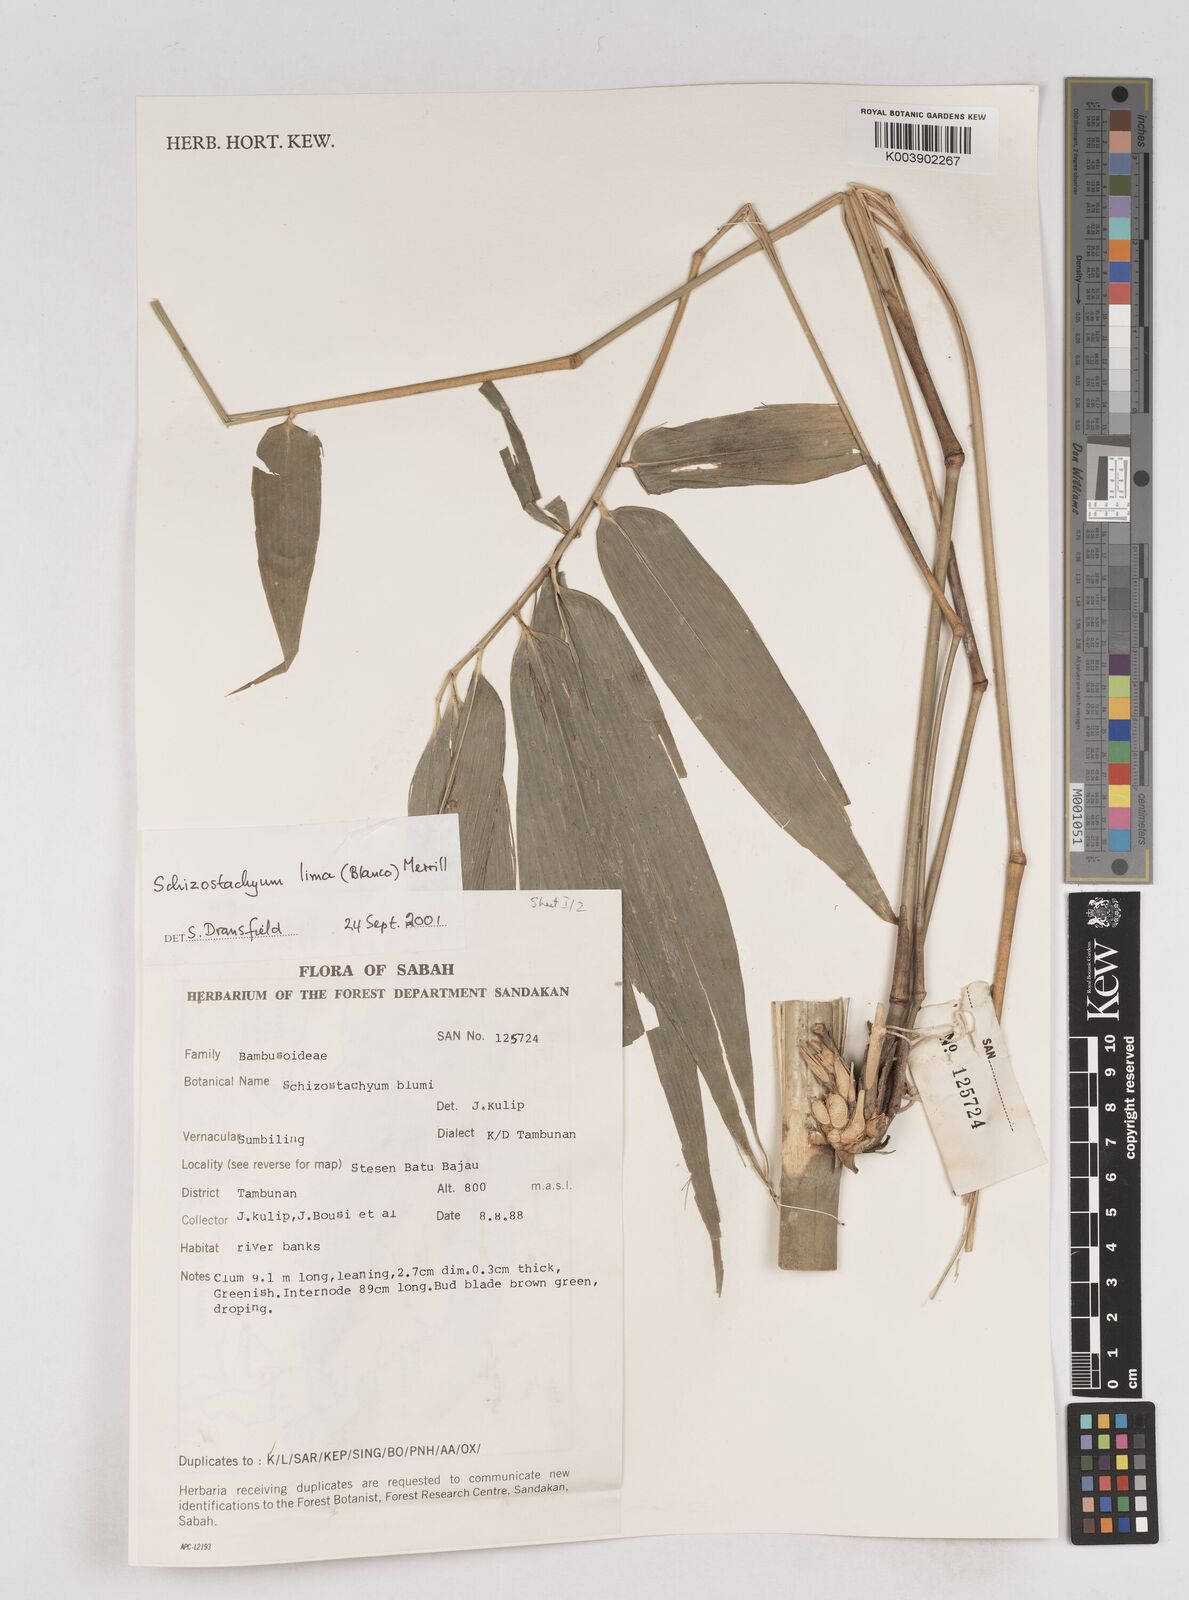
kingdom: Plantae
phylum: Tracheophyta
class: Liliopsida
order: Poales
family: Poaceae
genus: Schizostachyum
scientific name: Schizostachyum lima
